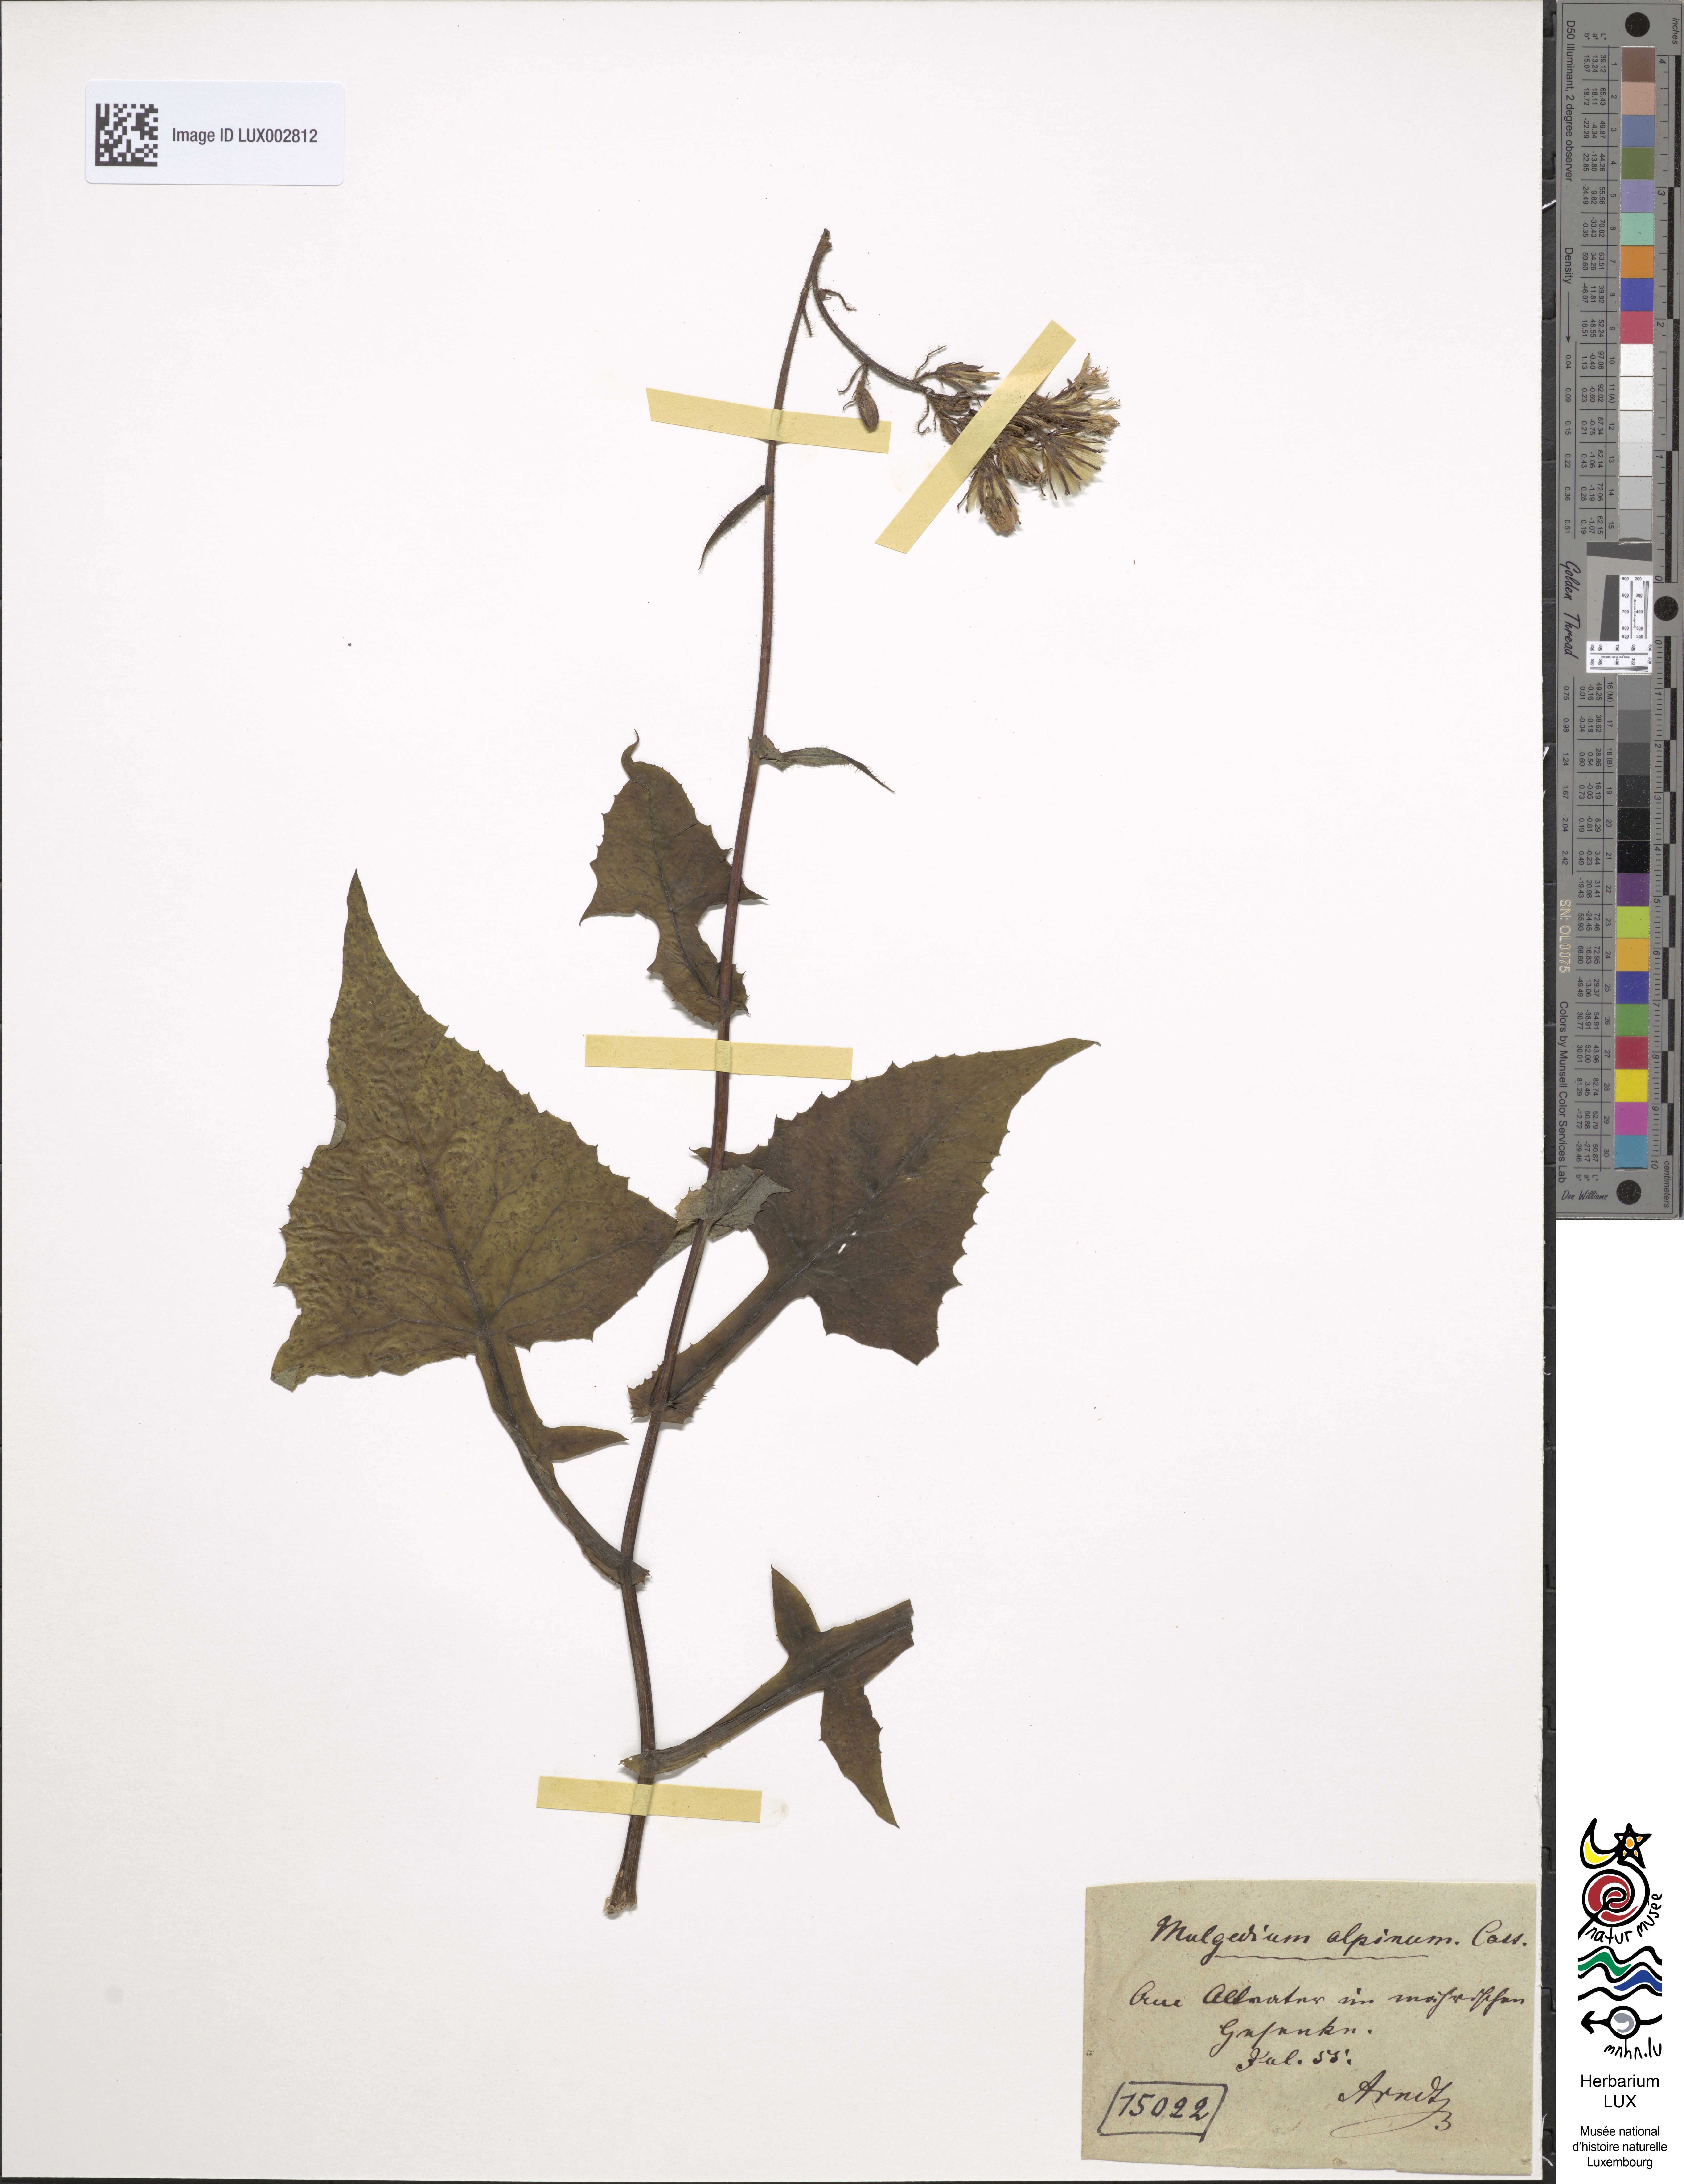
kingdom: Plantae
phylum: Tracheophyta
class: Magnoliopsida
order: Asterales
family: Asteraceae
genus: Cicerbita
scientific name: Cicerbita alpina
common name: Alpine blue-sow-thistle
